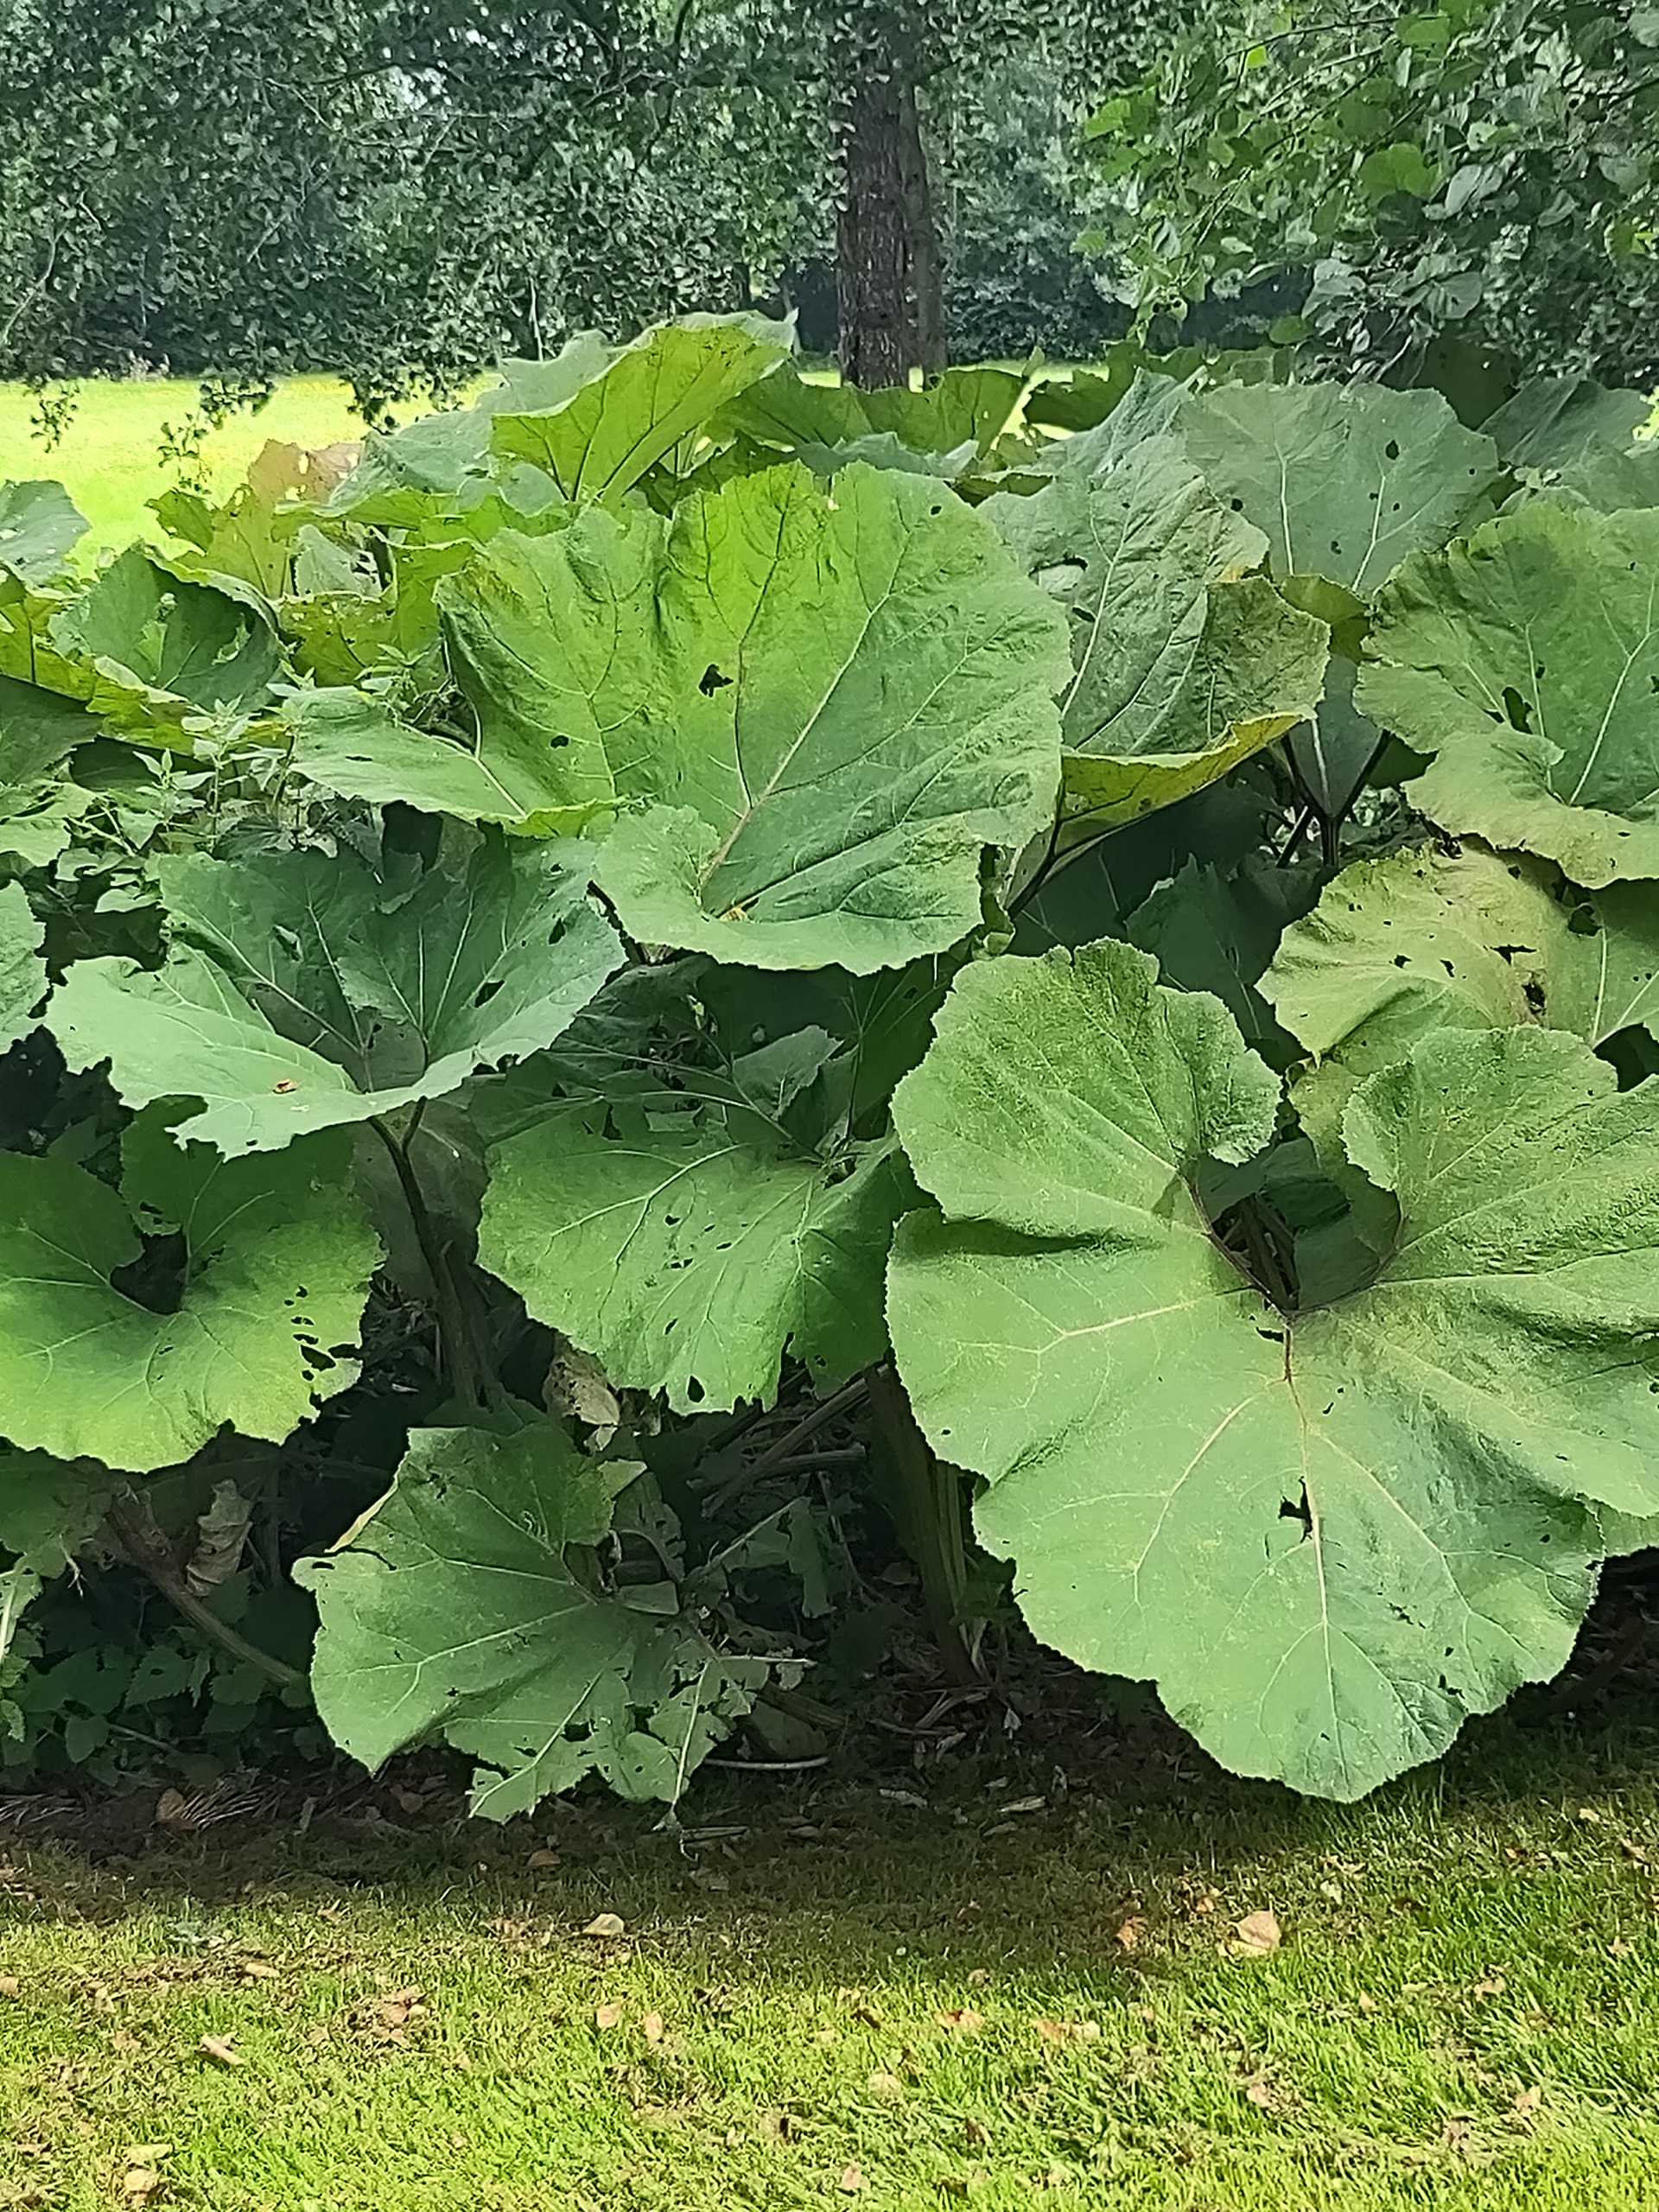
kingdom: Plantae
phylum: Tracheophyta
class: Magnoliopsida
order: Asterales
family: Asteraceae
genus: Petasites
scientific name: Petasites hybridus
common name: Rød hestehov
